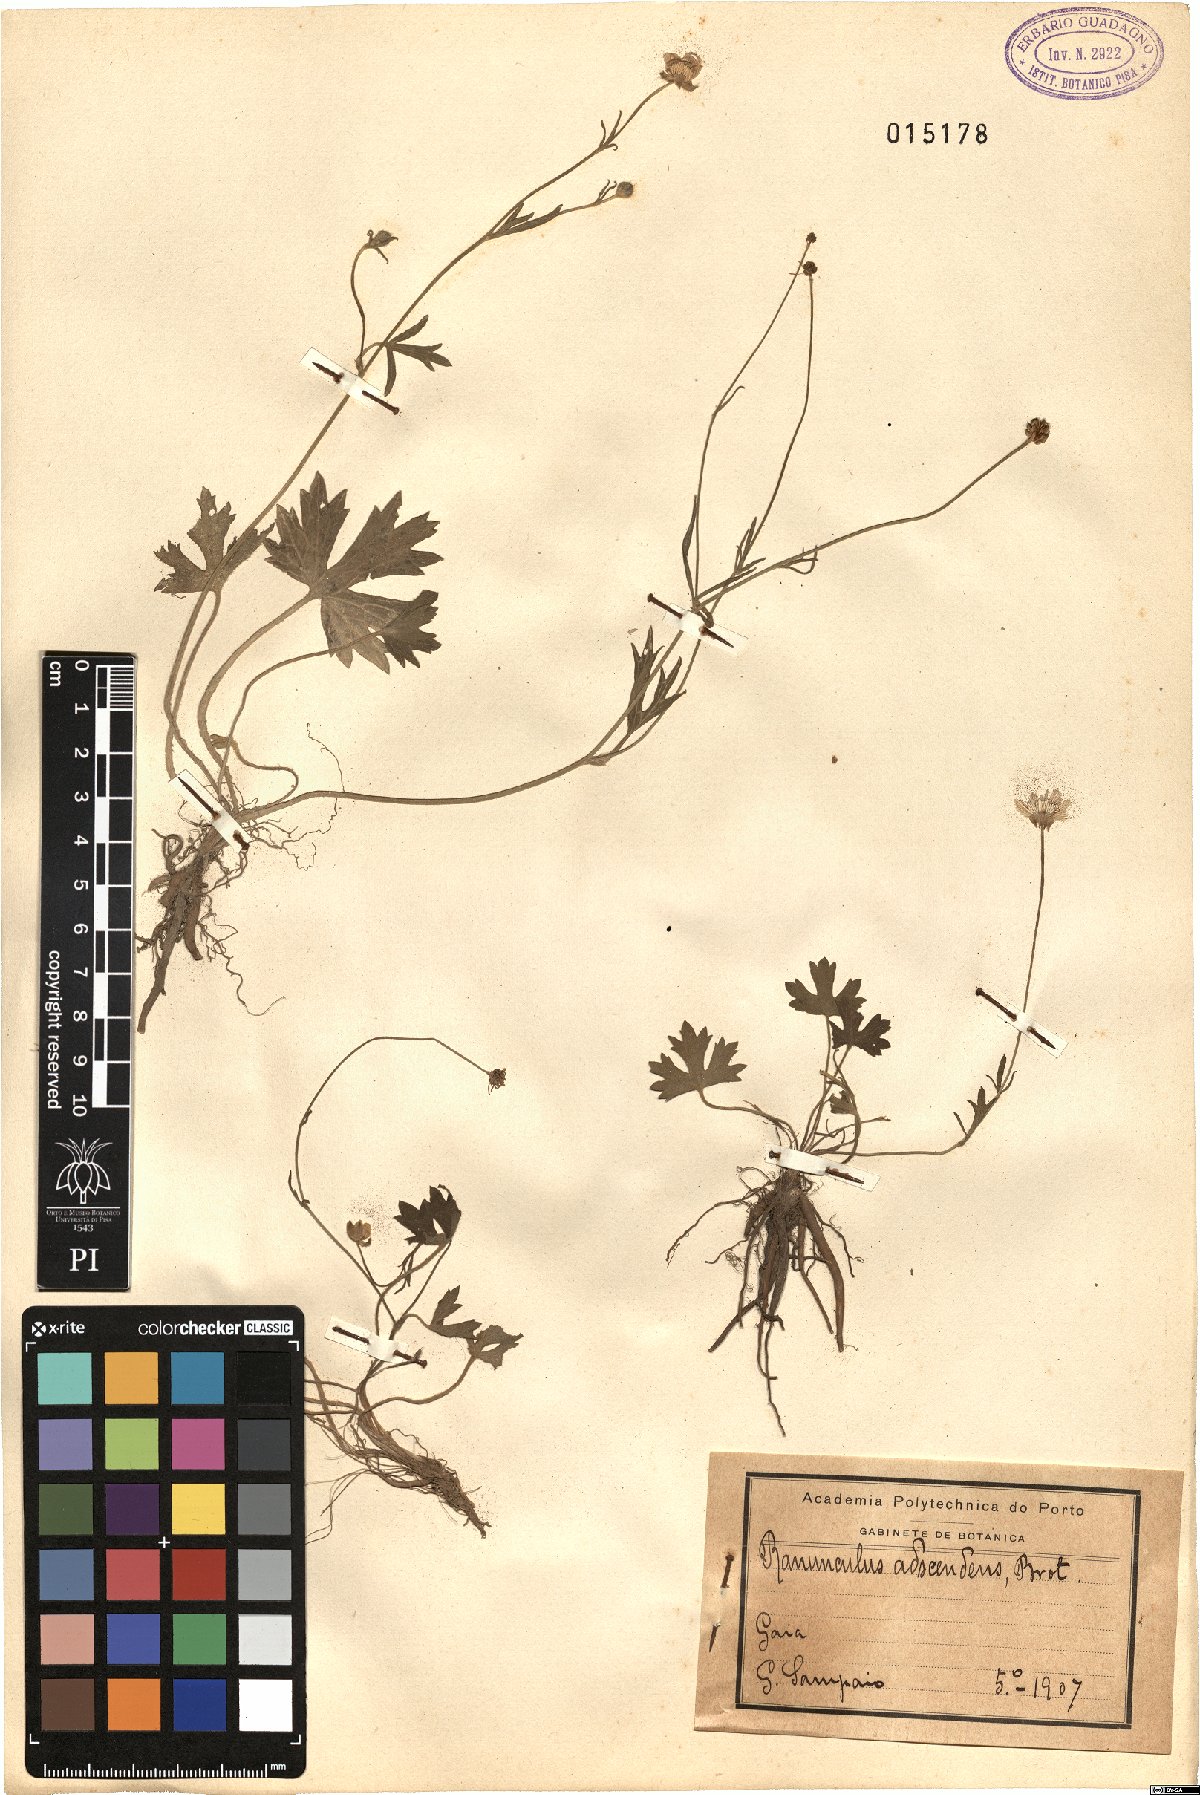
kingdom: Plantae
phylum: Tracheophyta
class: Magnoliopsida
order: Ranunculales
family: Ranunculaceae
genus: Ranunculus
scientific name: Ranunculus neapolitanus
